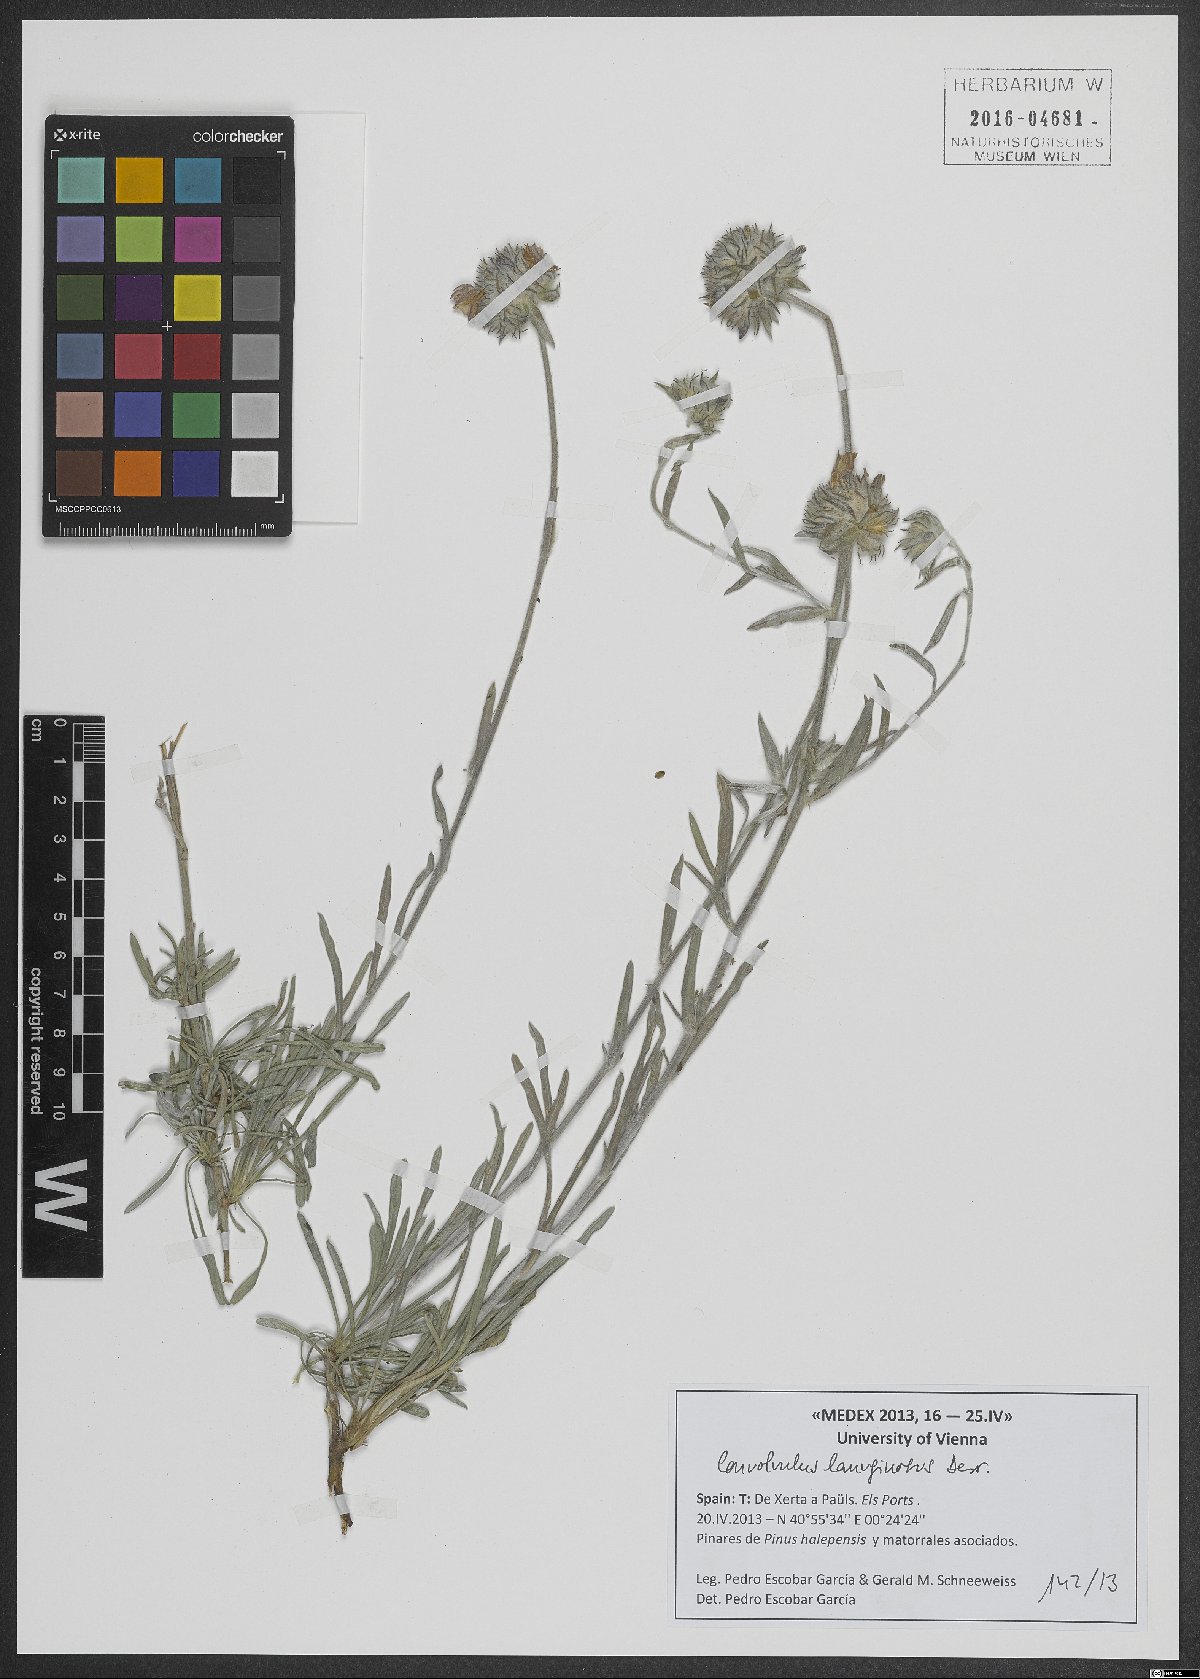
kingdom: Plantae
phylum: Tracheophyta
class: Magnoliopsida
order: Solanales
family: Convolvulaceae
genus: Convolvulus
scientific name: Convolvulus lanuginosus
